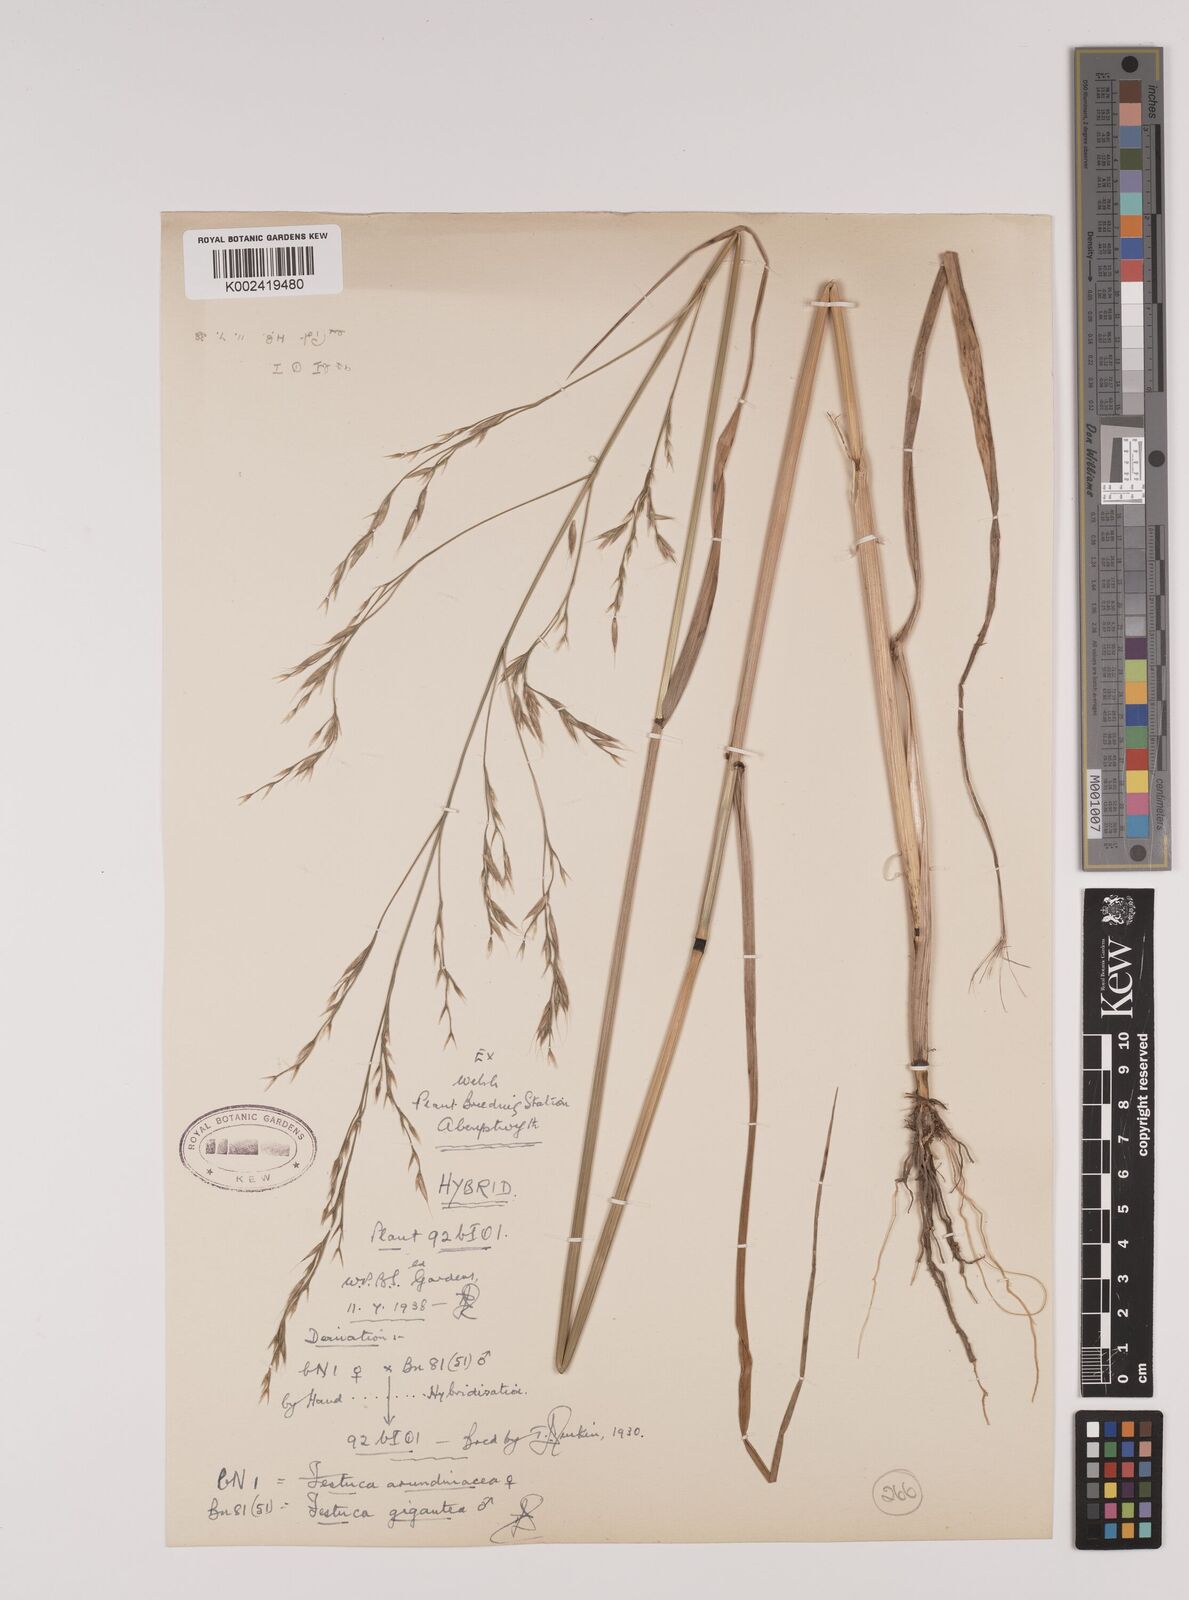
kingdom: Plantae
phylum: Tracheophyta
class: Liliopsida
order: Poales
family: Poaceae
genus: Lolium
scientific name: Lolium giganteum
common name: Giant fescue
